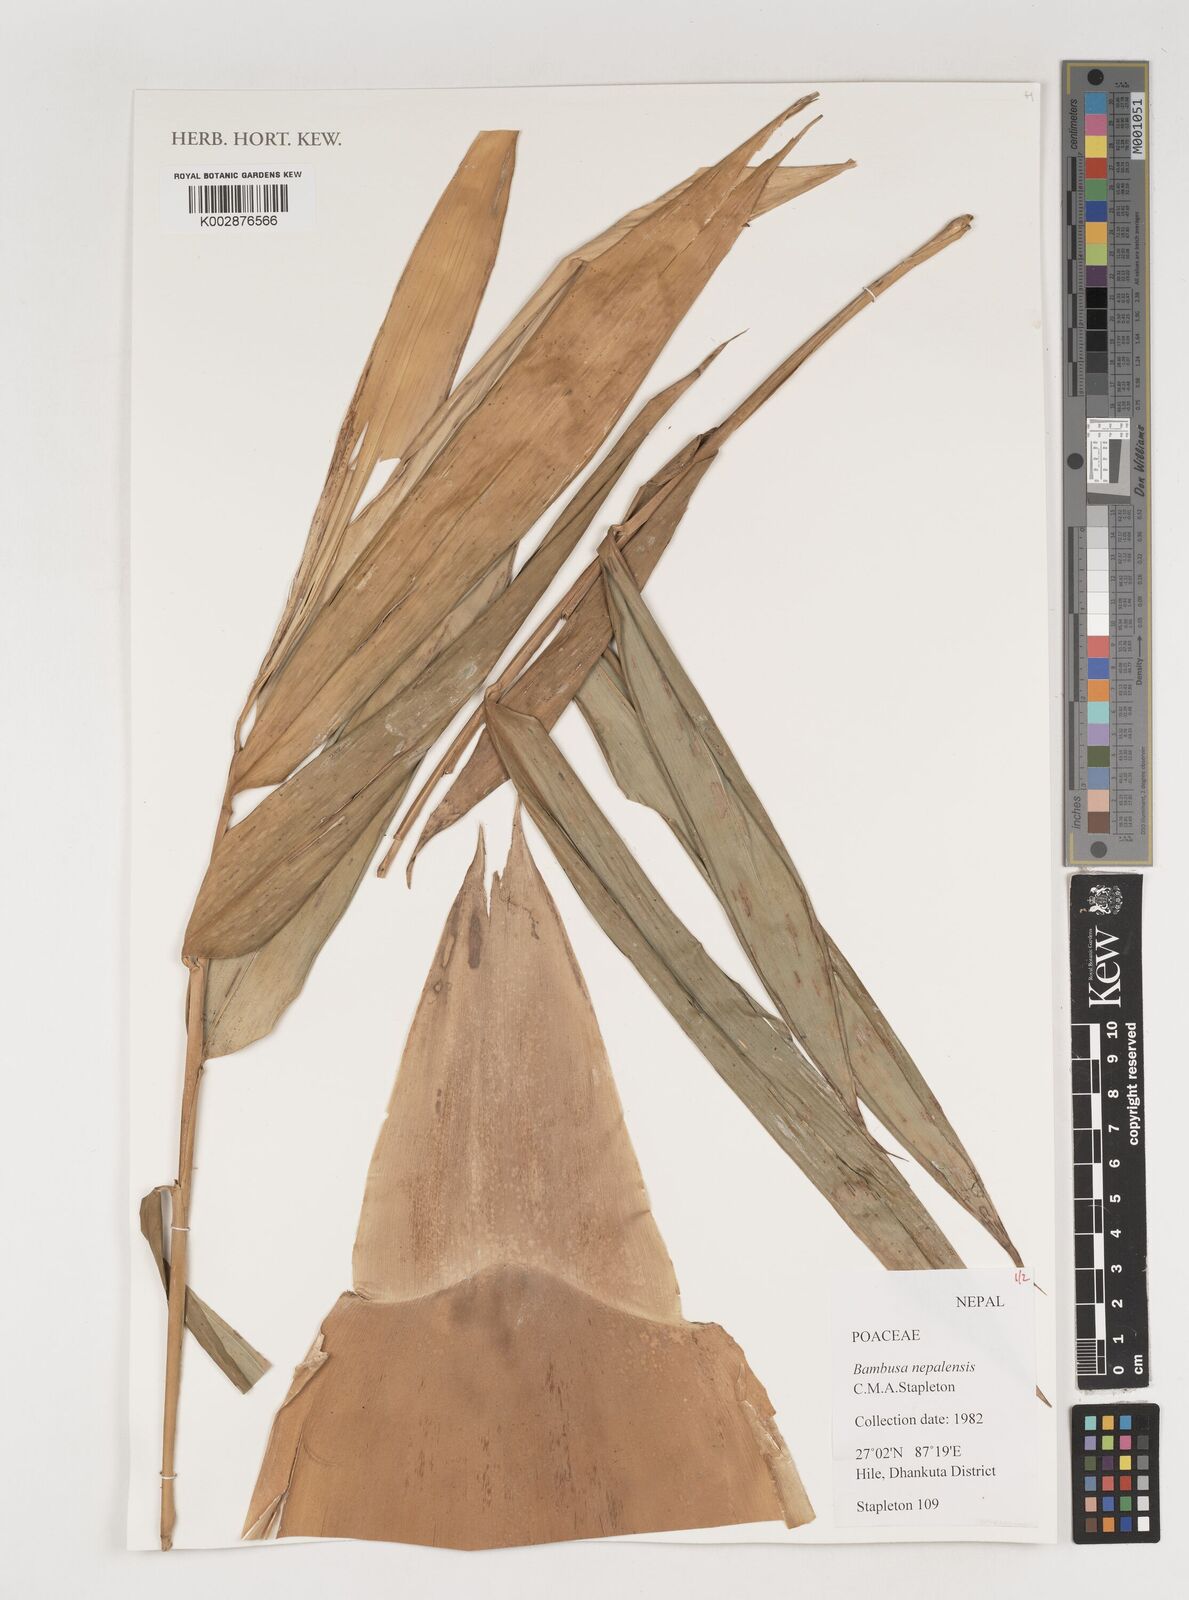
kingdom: Plantae
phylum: Tracheophyta
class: Liliopsida
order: Poales
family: Poaceae
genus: Bambusa
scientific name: Bambusa nepalensis
